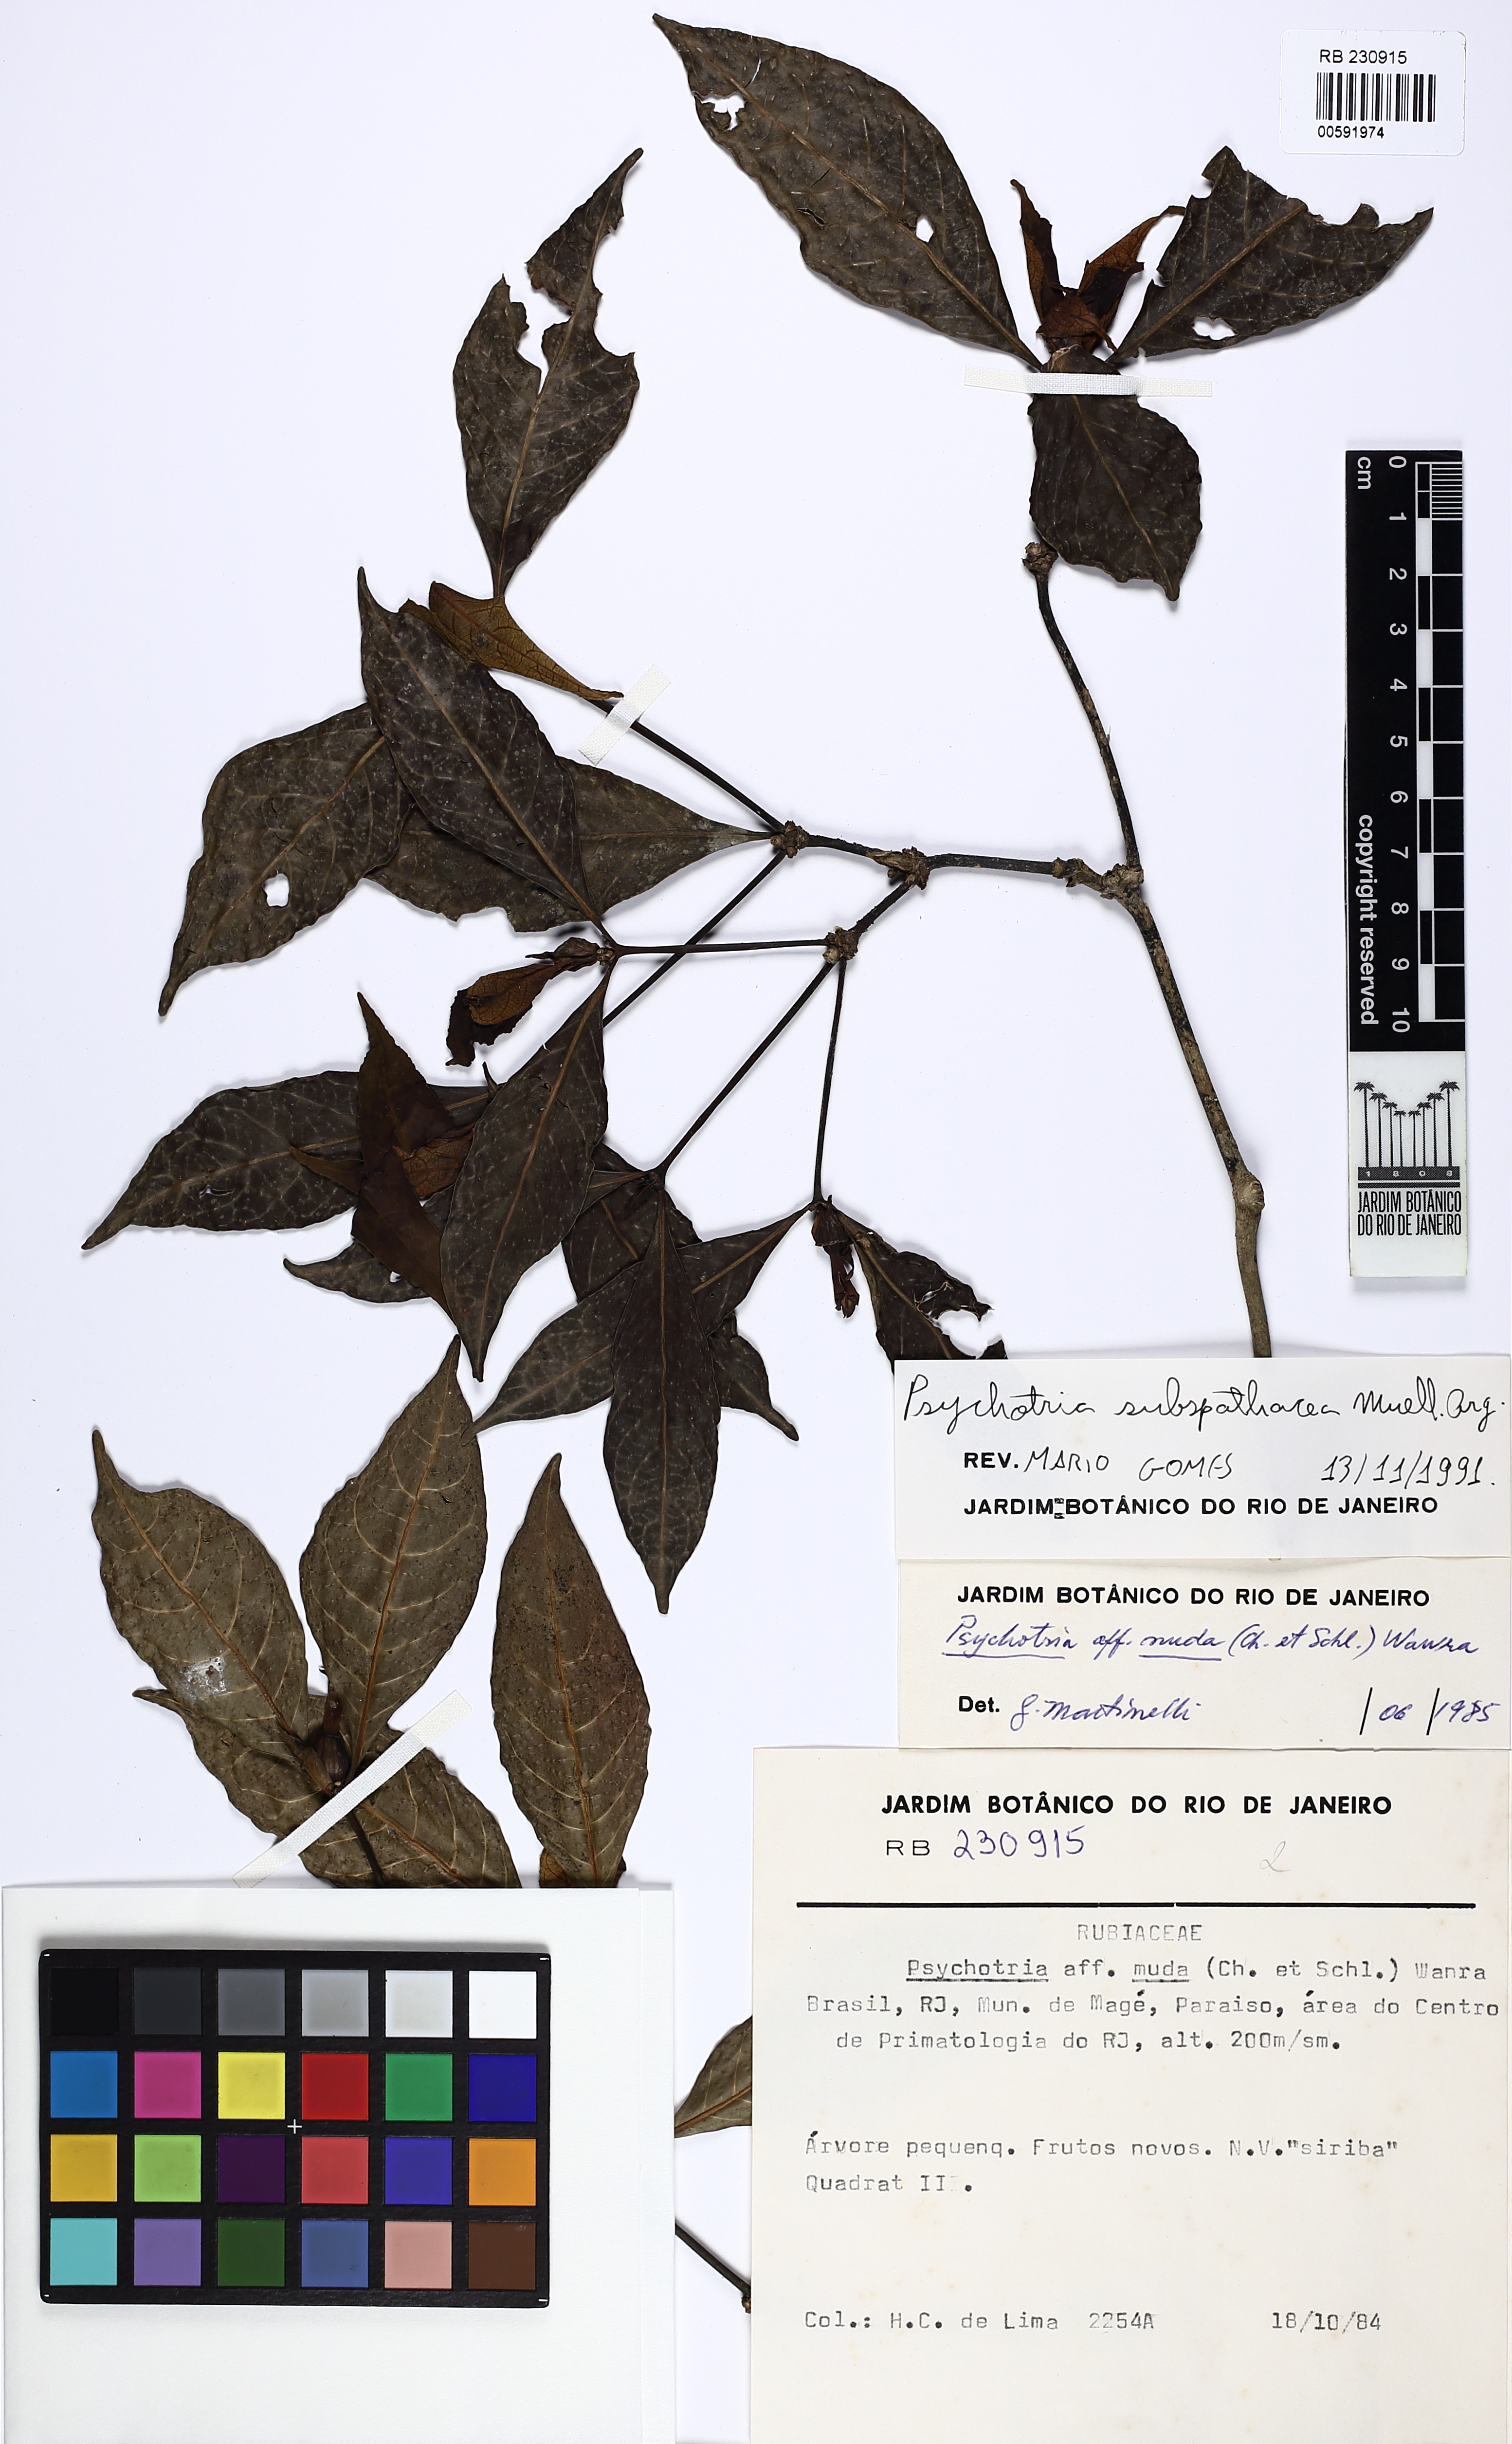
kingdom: Plantae
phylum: Tracheophyta
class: Magnoliopsida
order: Gentianales
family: Rubiaceae
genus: Psychotria
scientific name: Psychotria subspathacea
